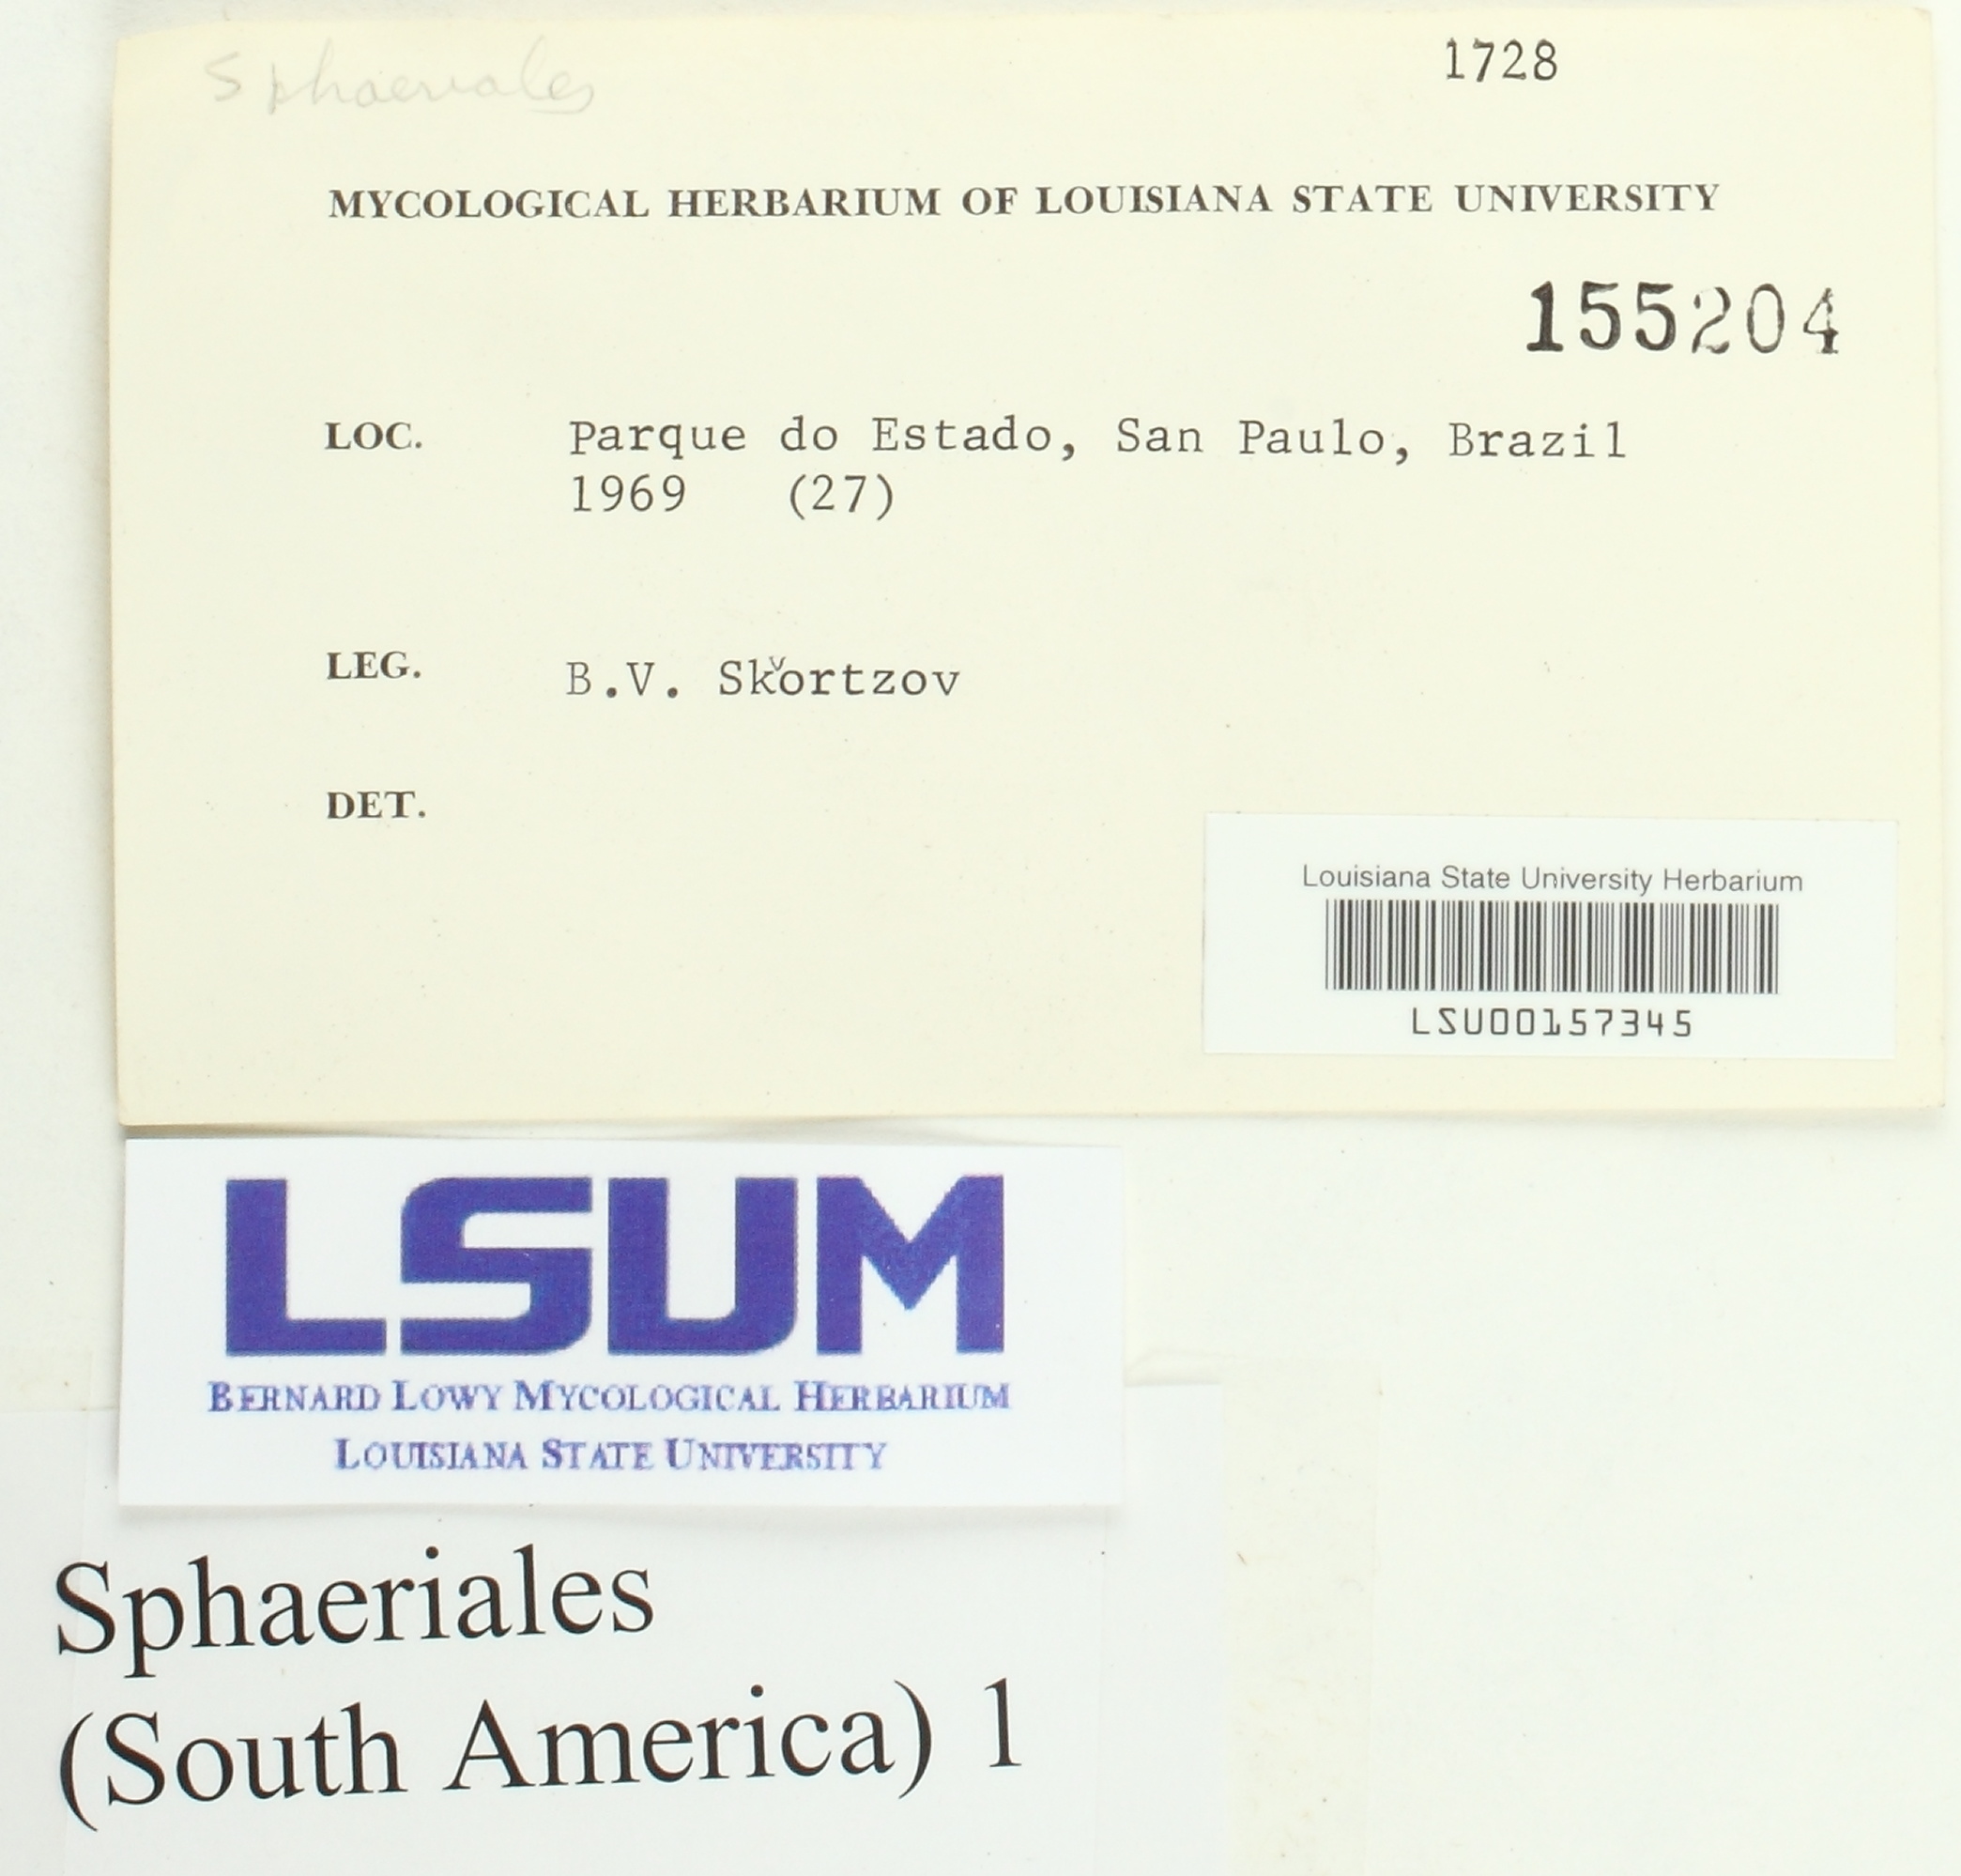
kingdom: Fungi
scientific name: Fungi
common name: Fungi
